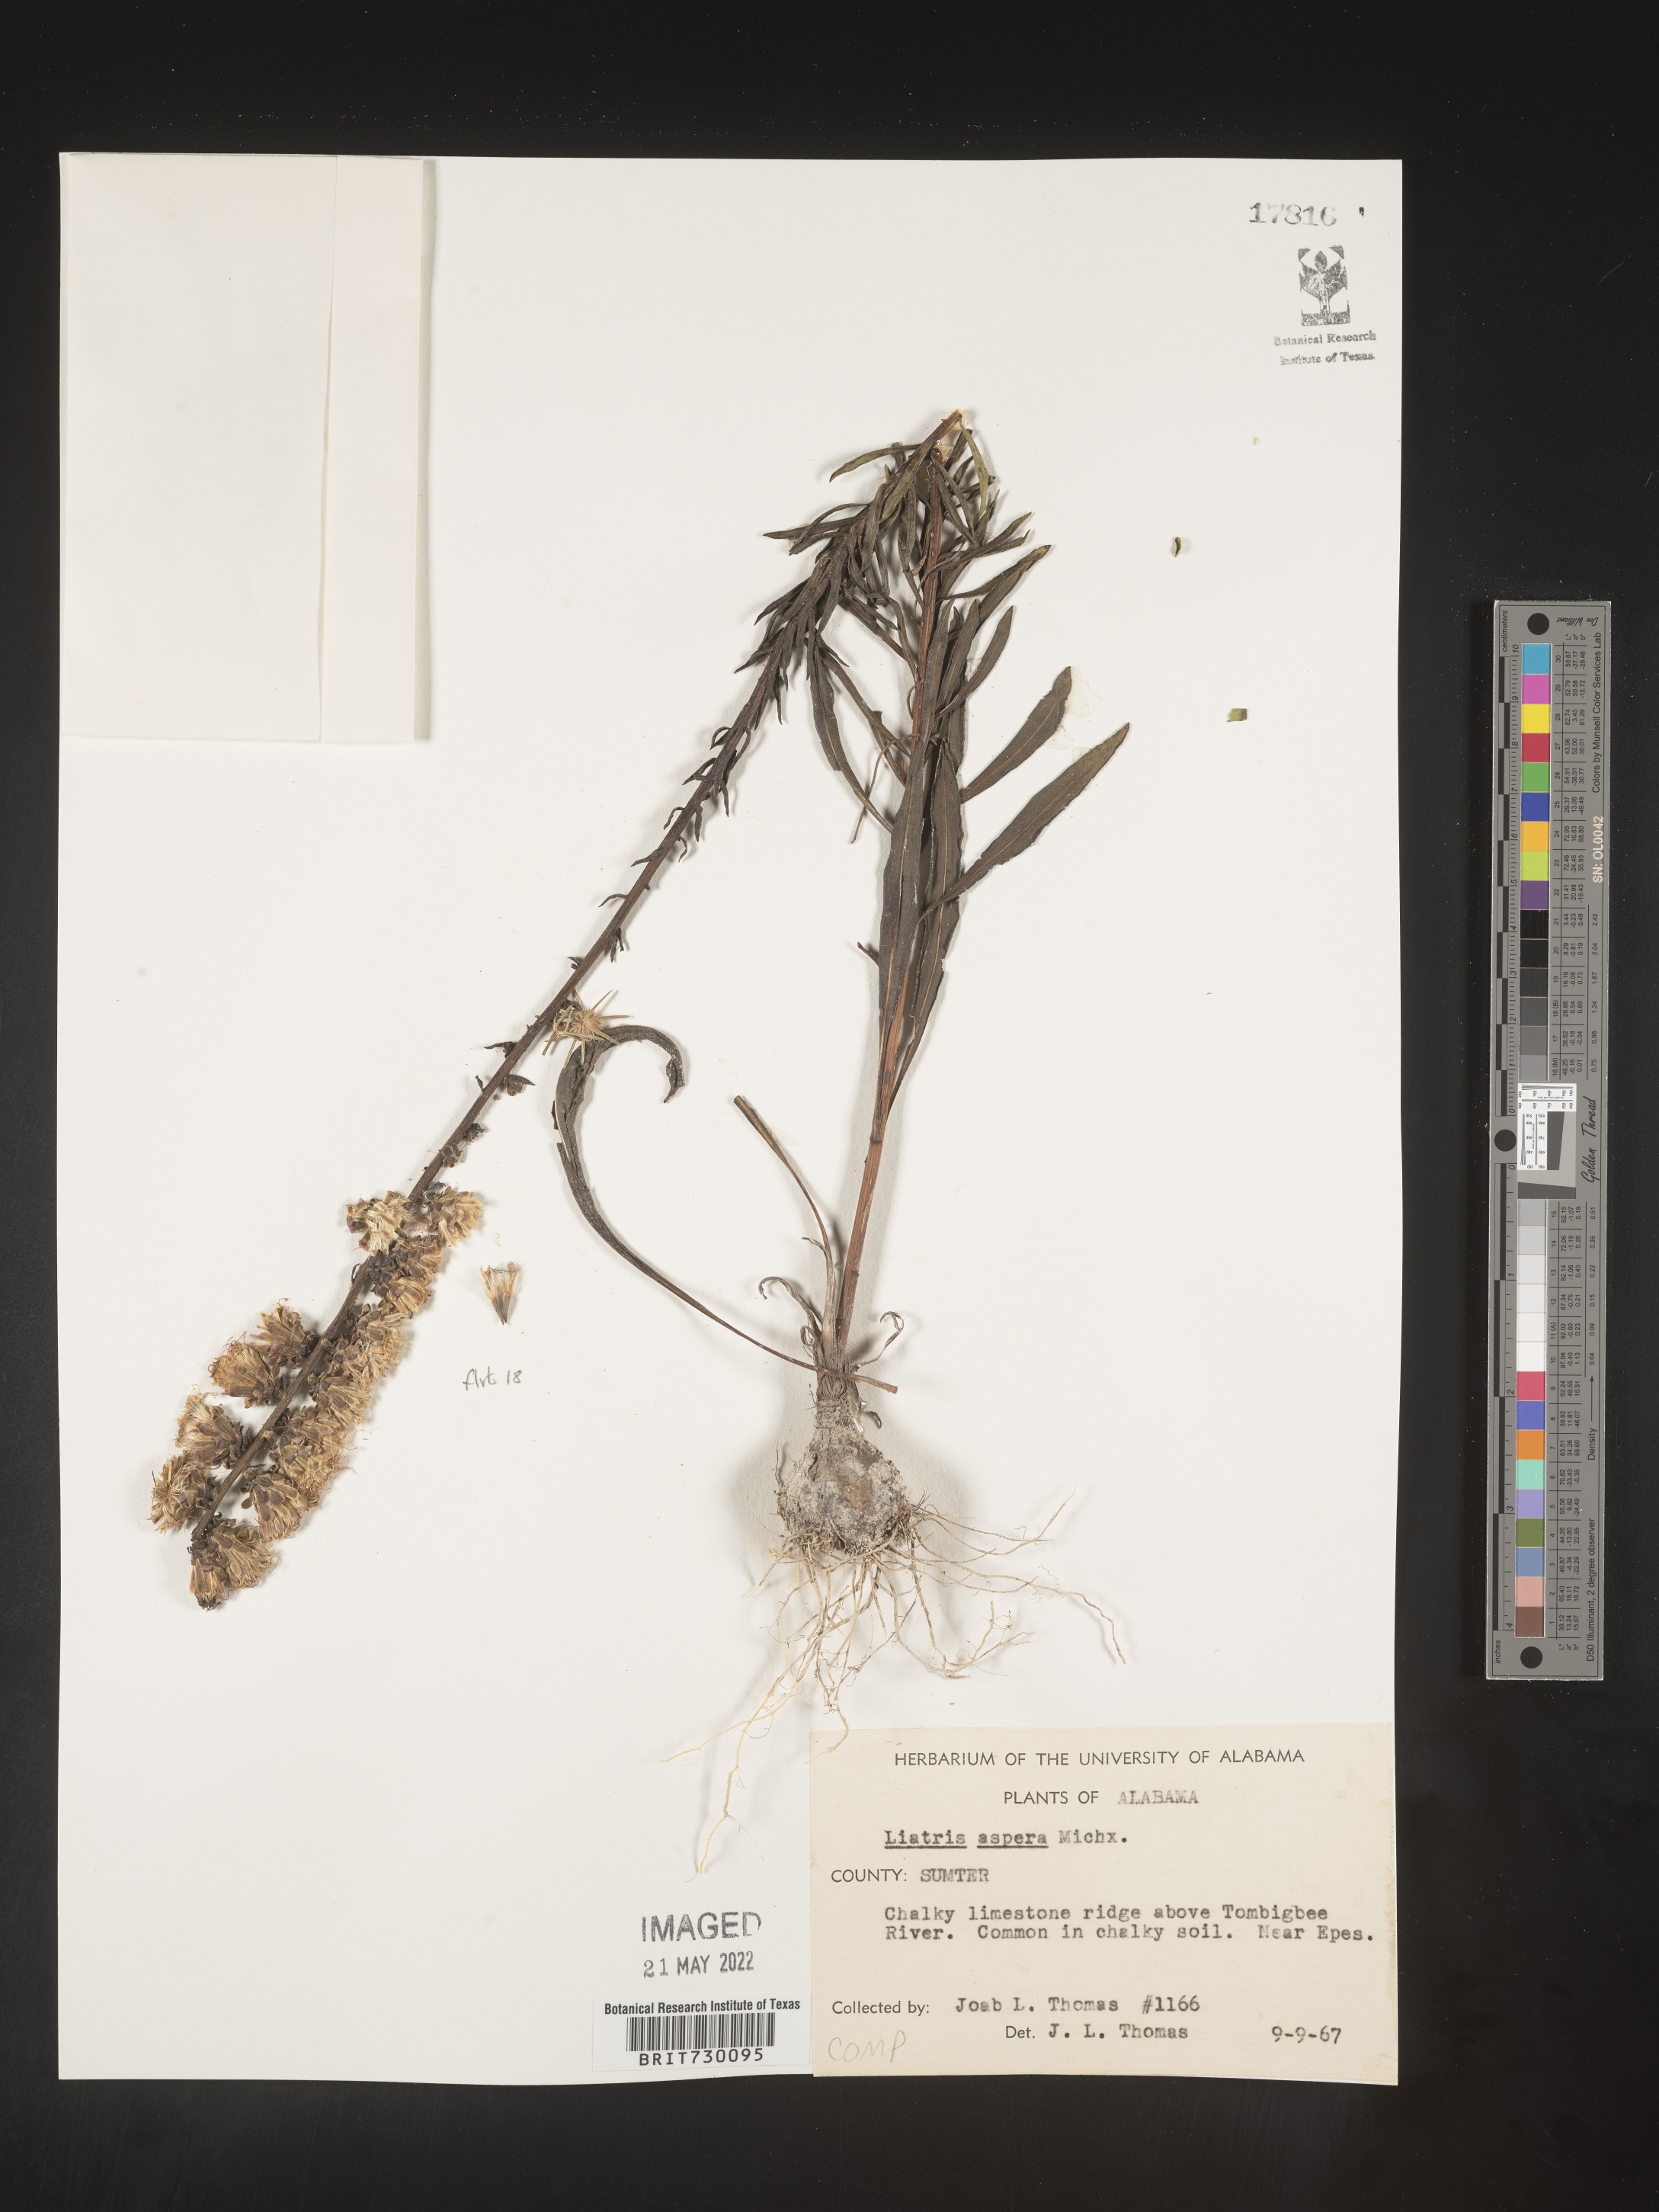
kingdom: Plantae
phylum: Tracheophyta
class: Magnoliopsida
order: Asterales
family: Asteraceae
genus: Liatris
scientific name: Liatris aspera
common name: Lacerate blazing-star
